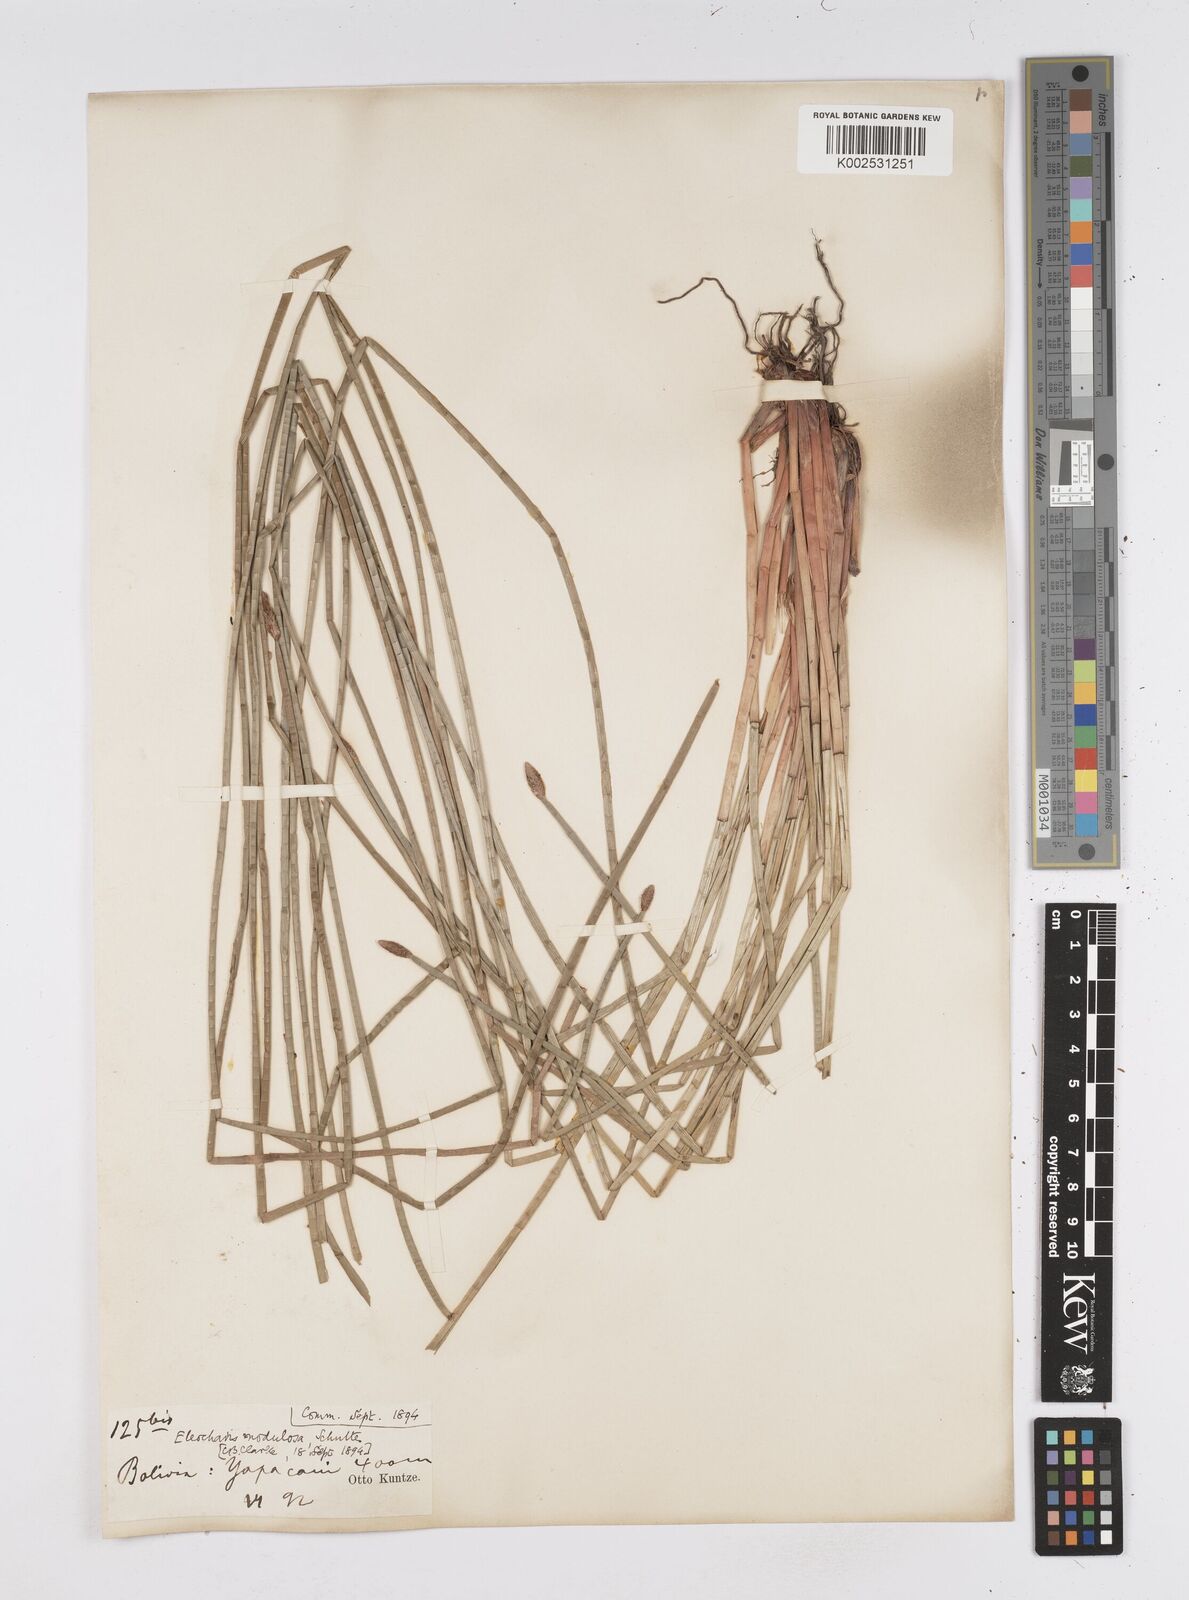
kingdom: Plantae
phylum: Tracheophyta
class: Liliopsida
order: Poales
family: Cyperaceae
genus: Eleocharis
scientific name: Eleocharis montana
